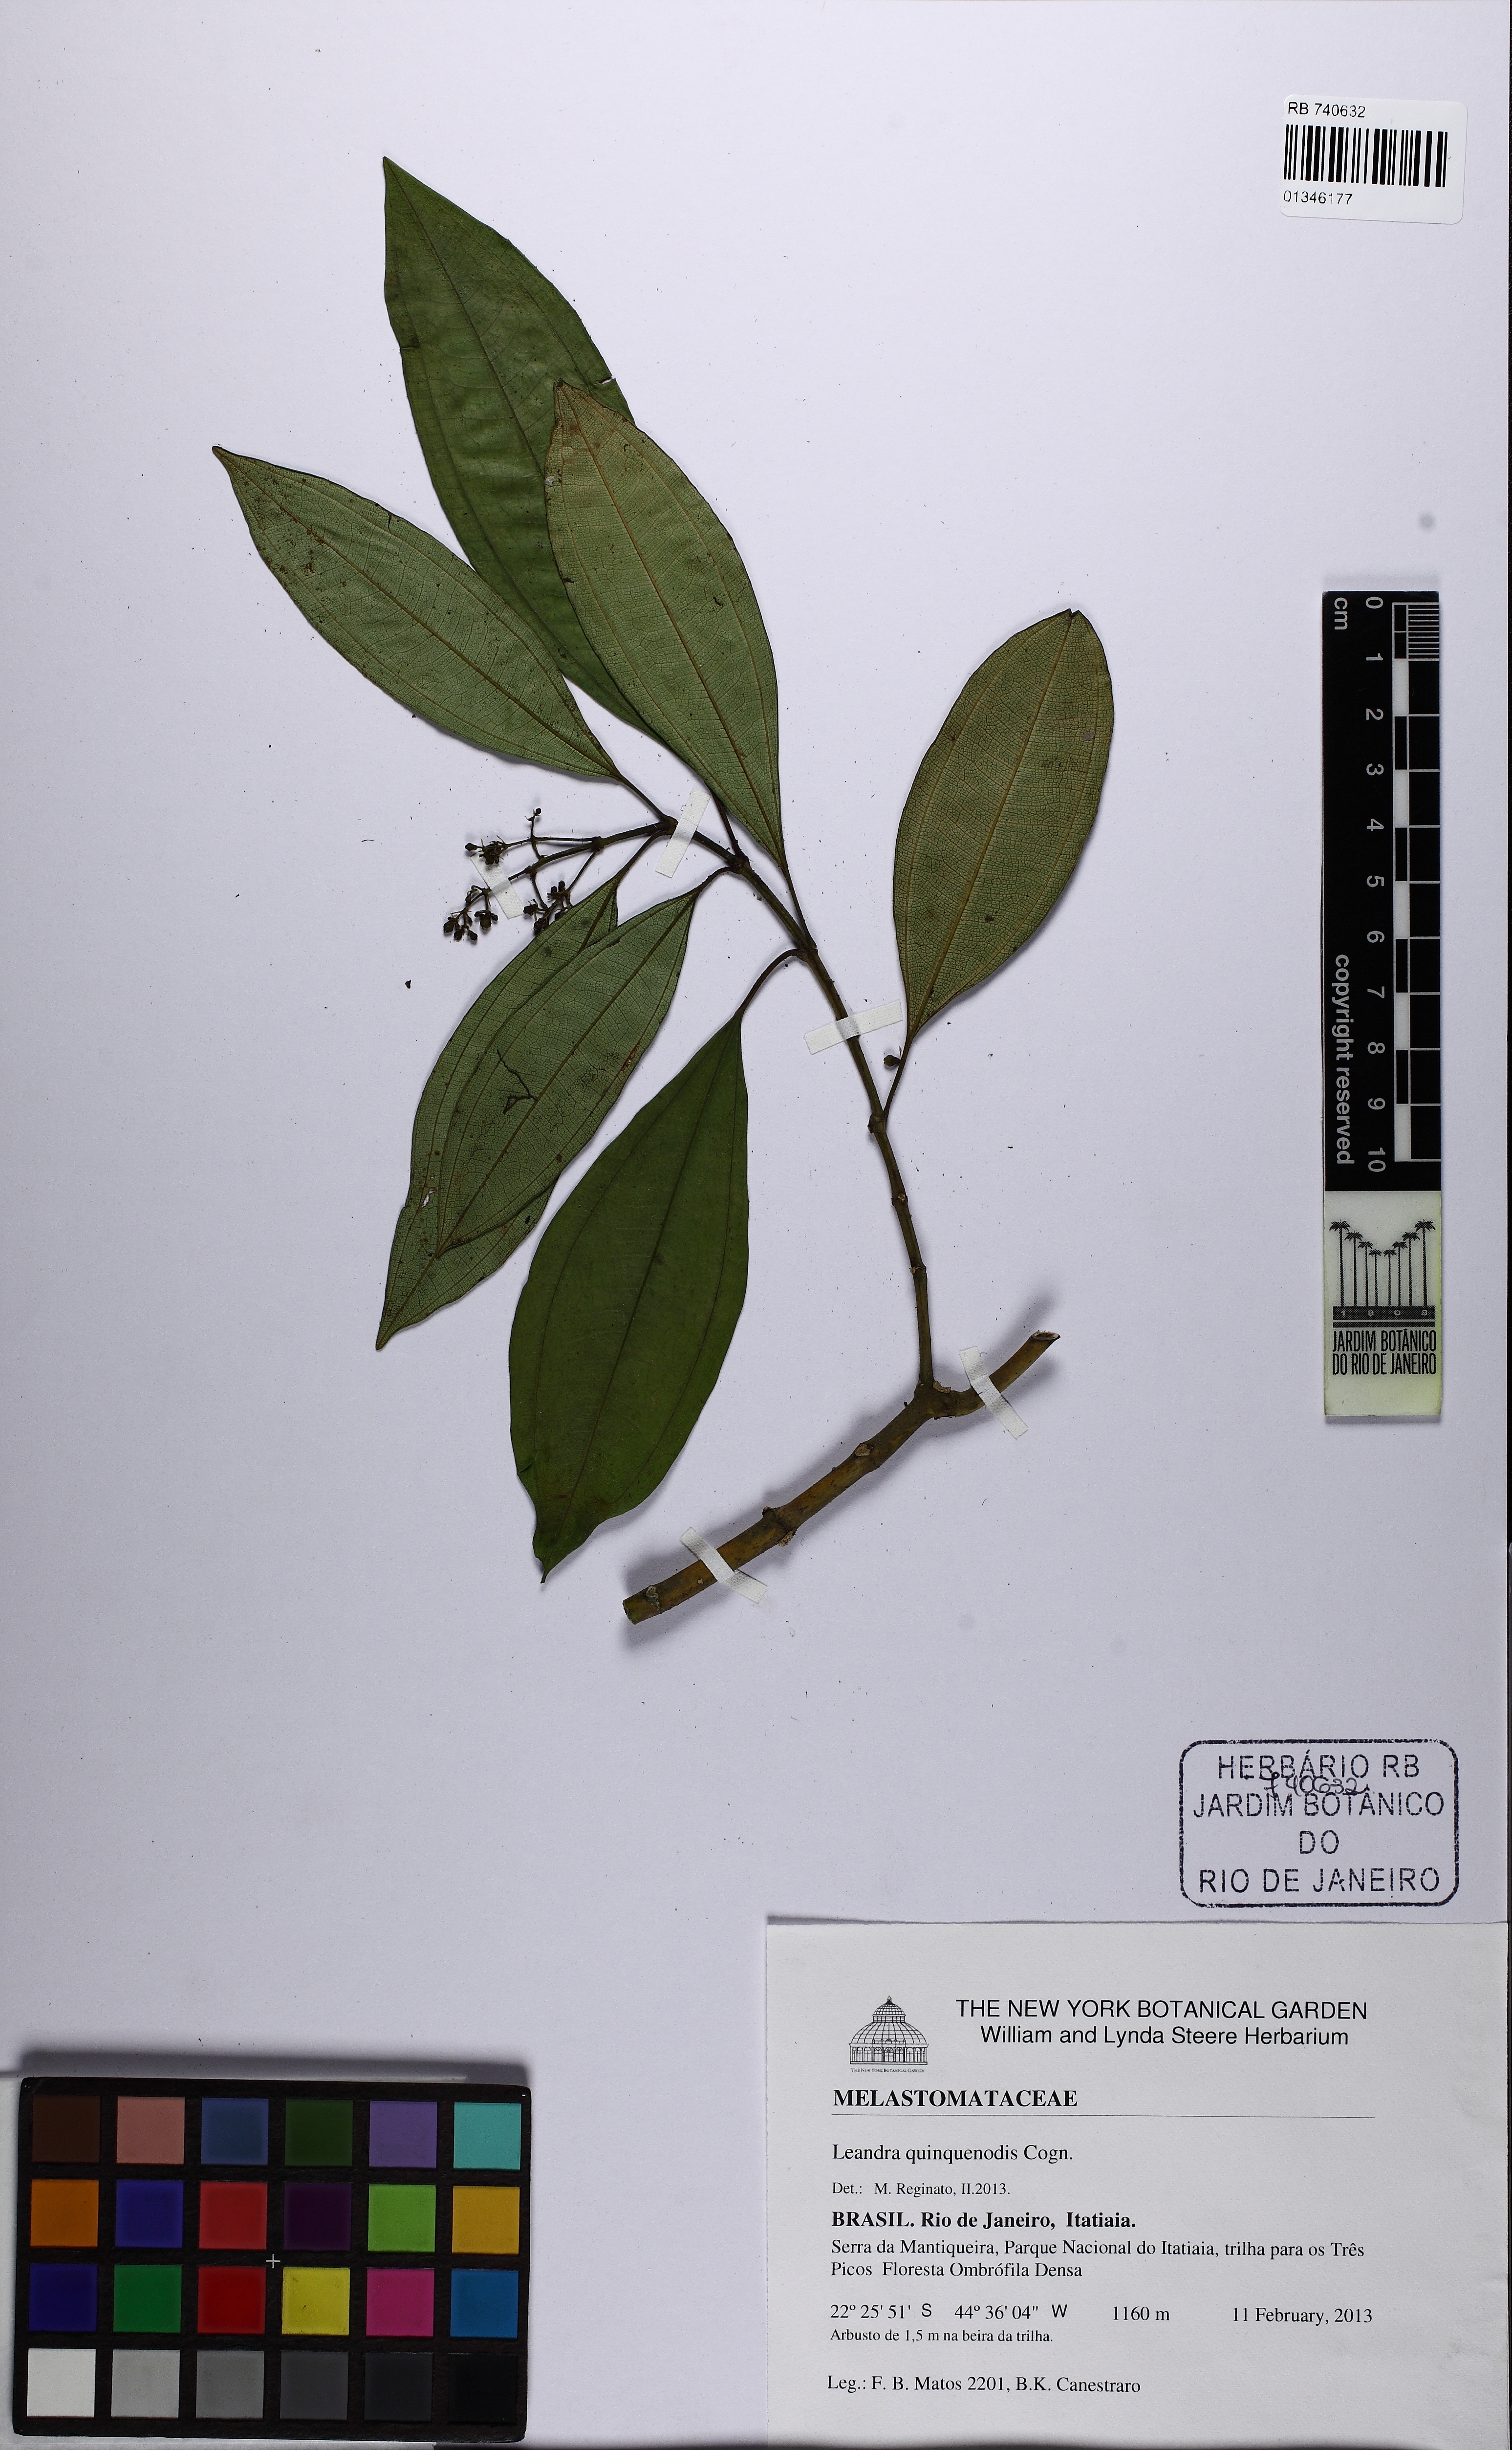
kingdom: Plantae
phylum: Tracheophyta
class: Magnoliopsida
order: Myrtales
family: Melastomataceae
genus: Miconia
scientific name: Miconia quinquenodis
